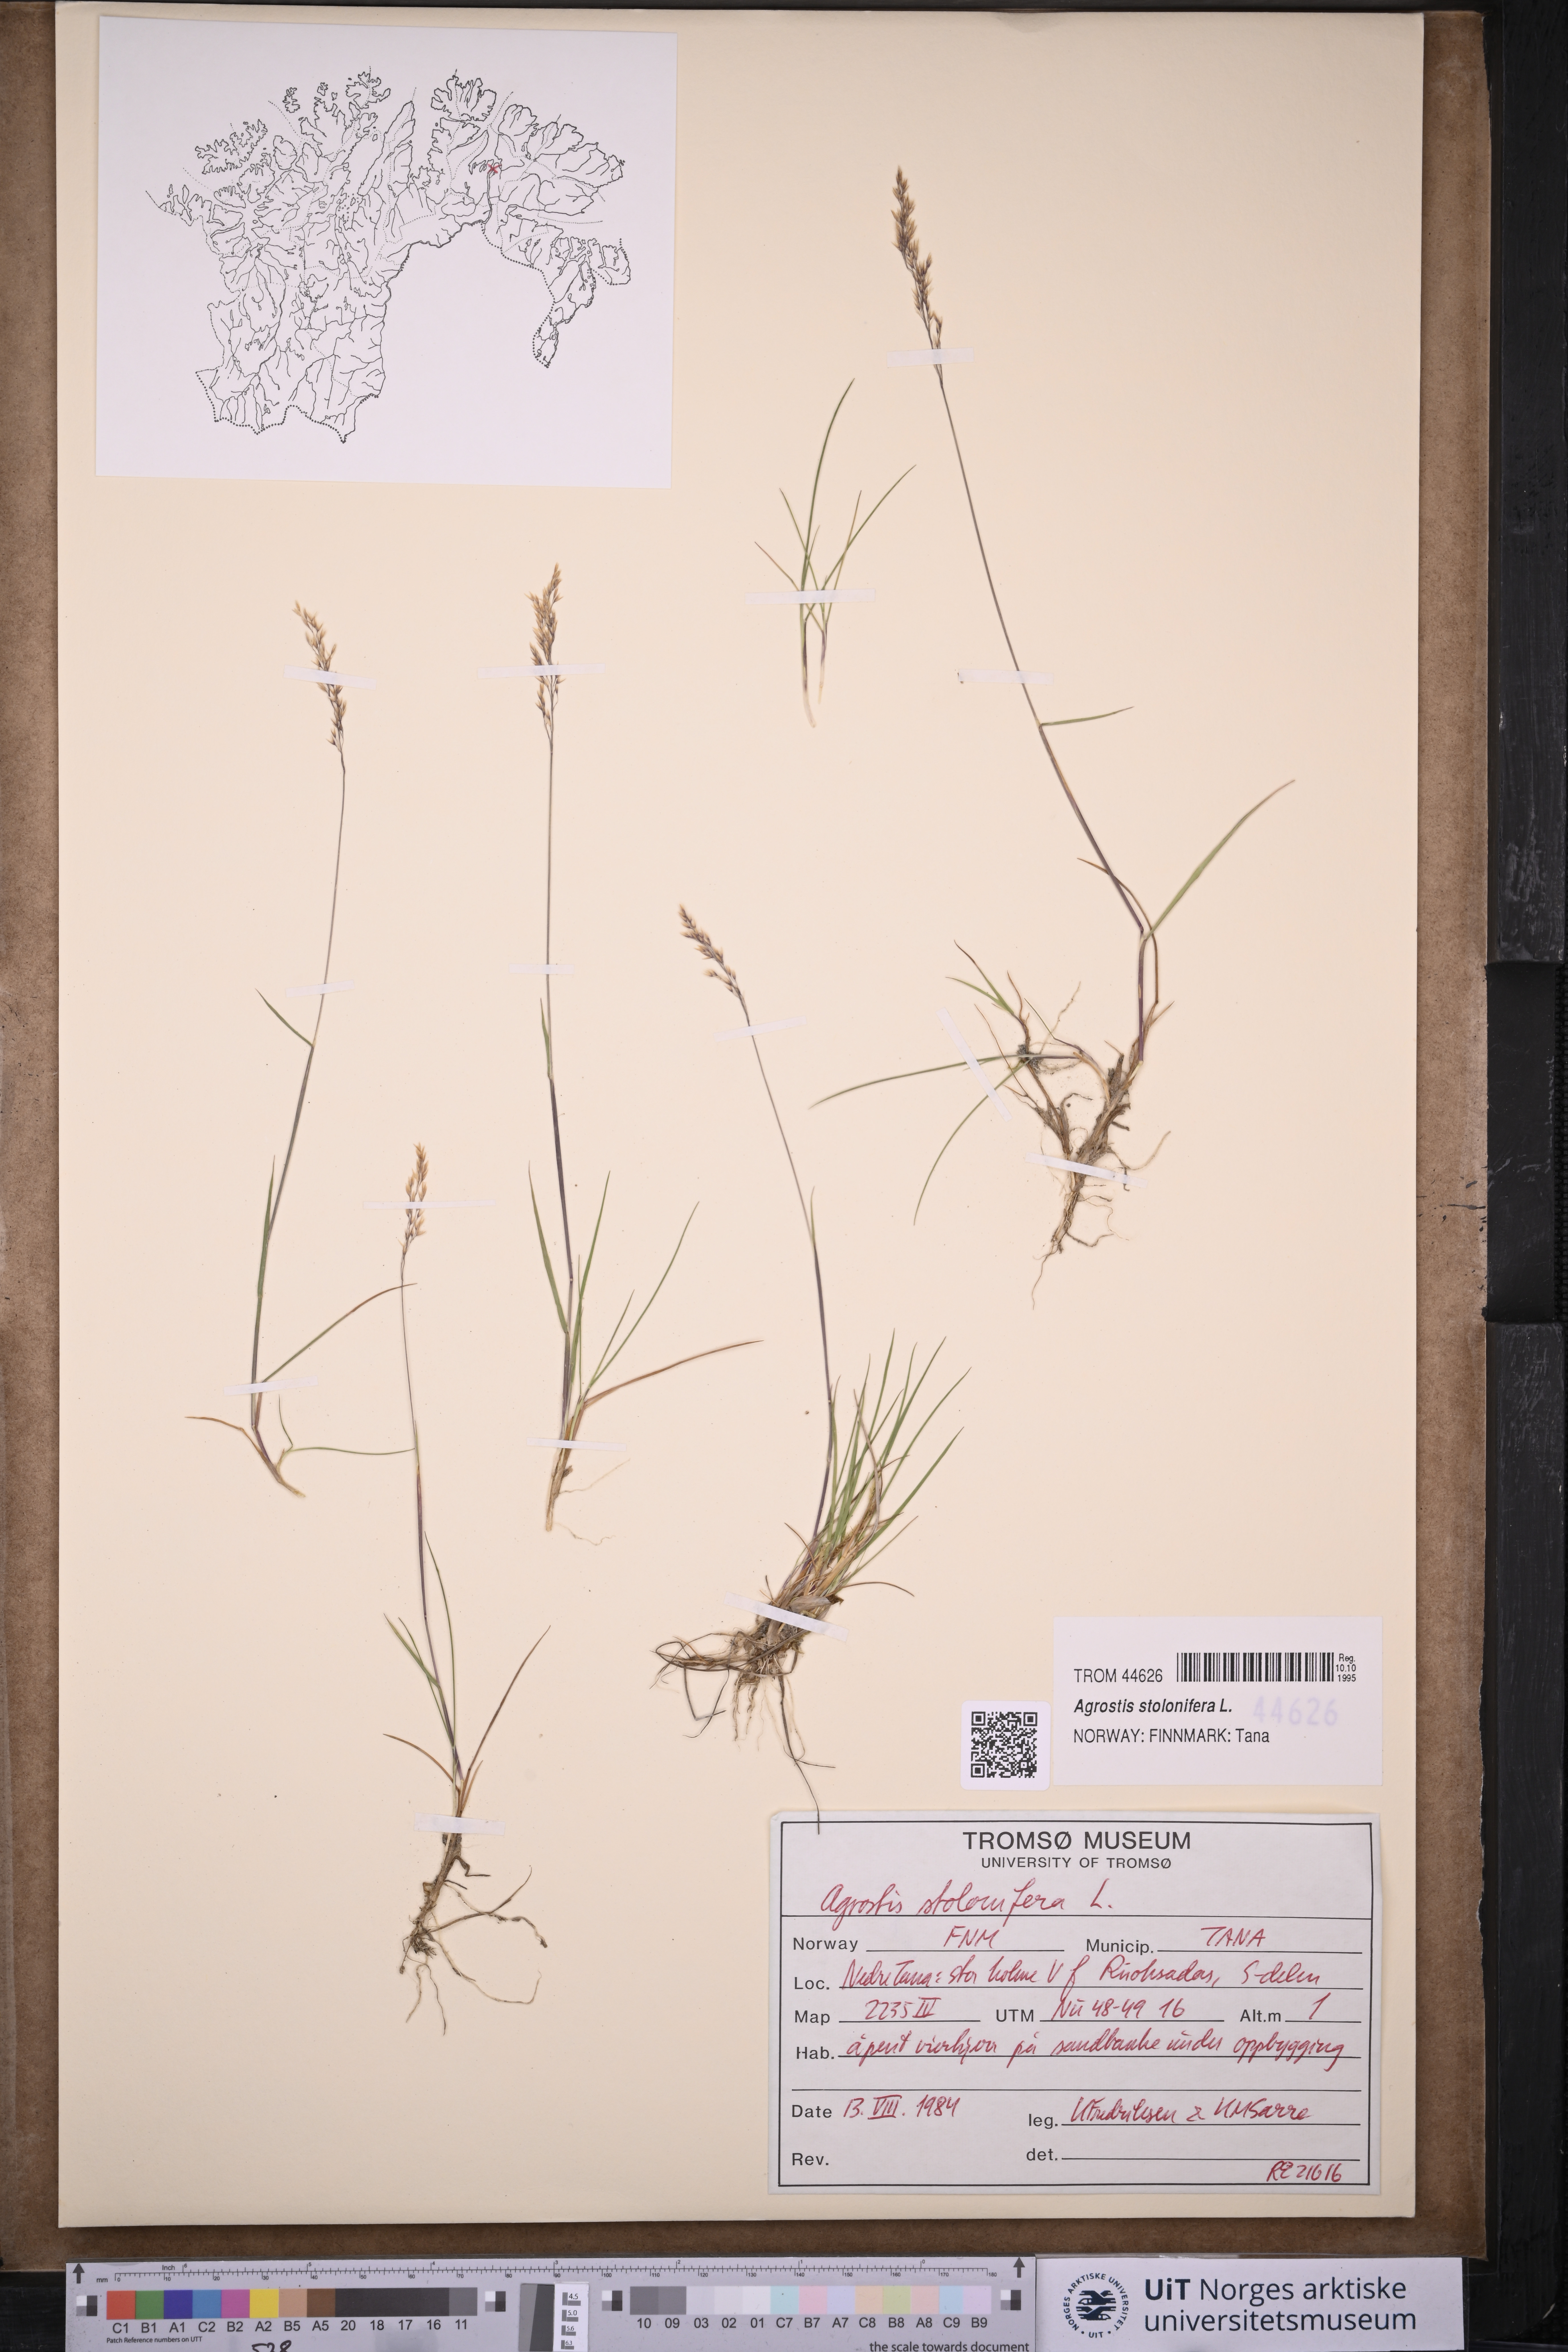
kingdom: Plantae
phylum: Tracheophyta
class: Liliopsida
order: Poales
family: Poaceae
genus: Agrostis
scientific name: Agrostis stolonifera
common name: Creeping bentgrass
